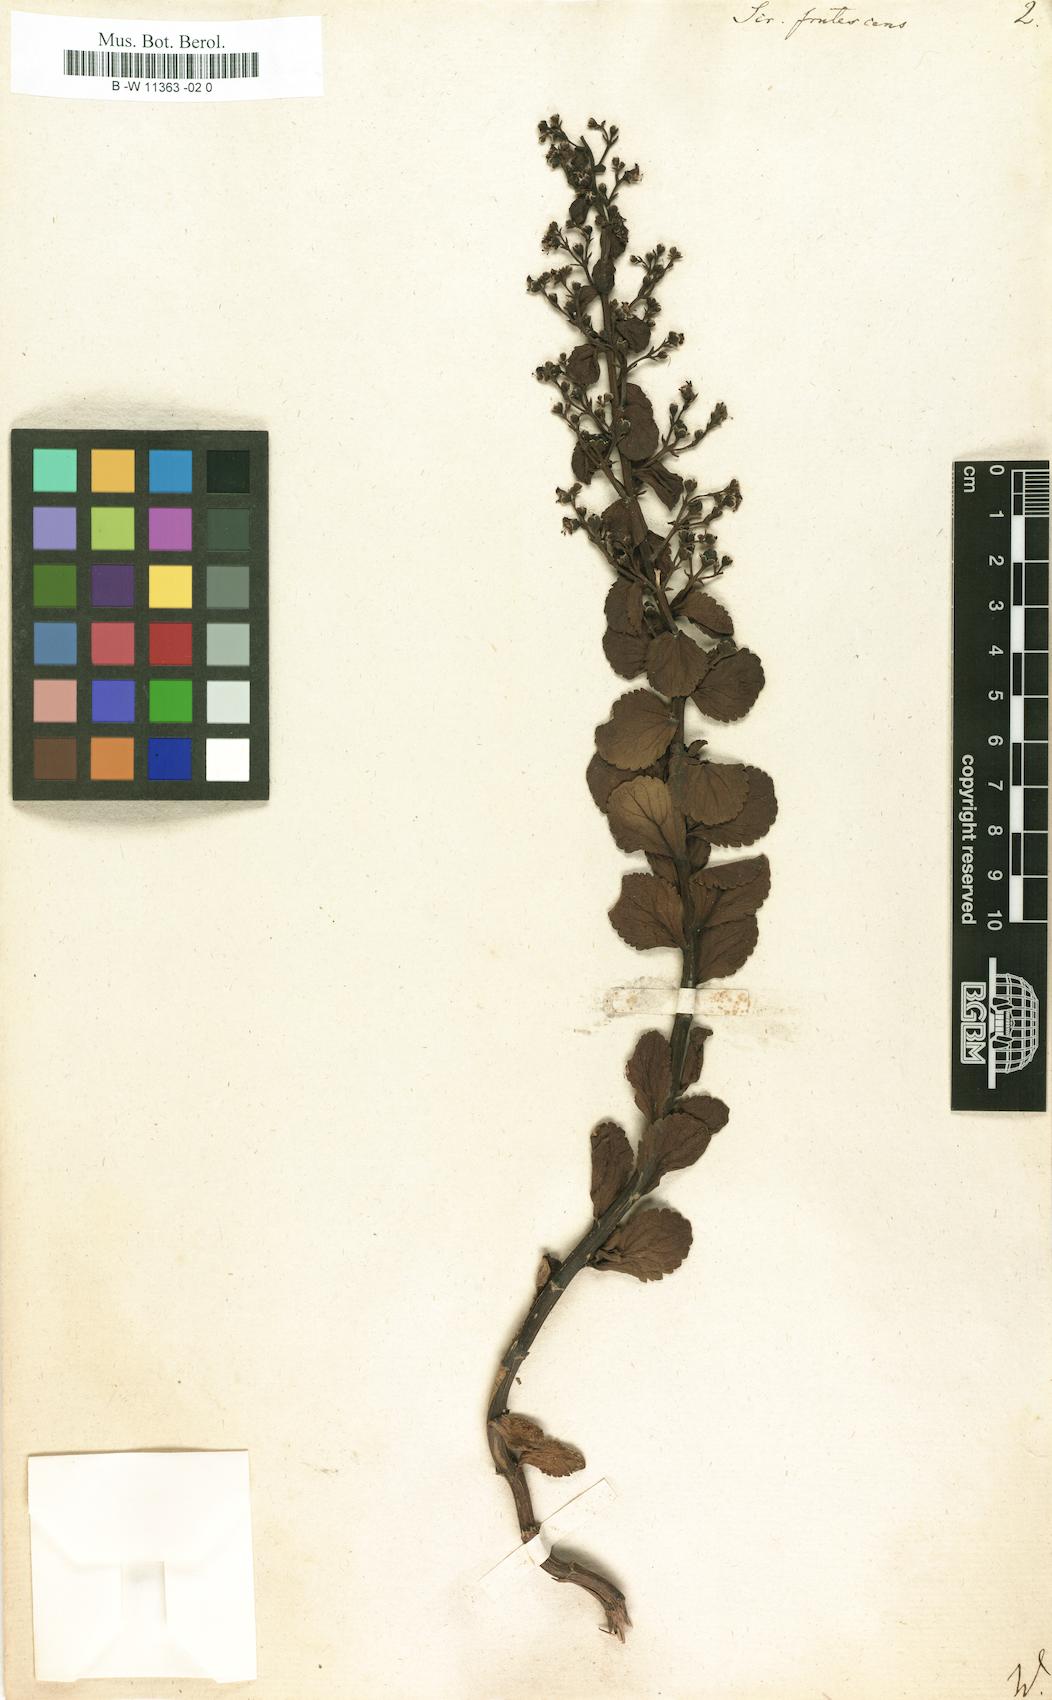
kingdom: Plantae
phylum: Tracheophyta
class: Magnoliopsida
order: Lamiales
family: Scrophulariaceae
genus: Scrophularia
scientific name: Scrophularia frutescens
